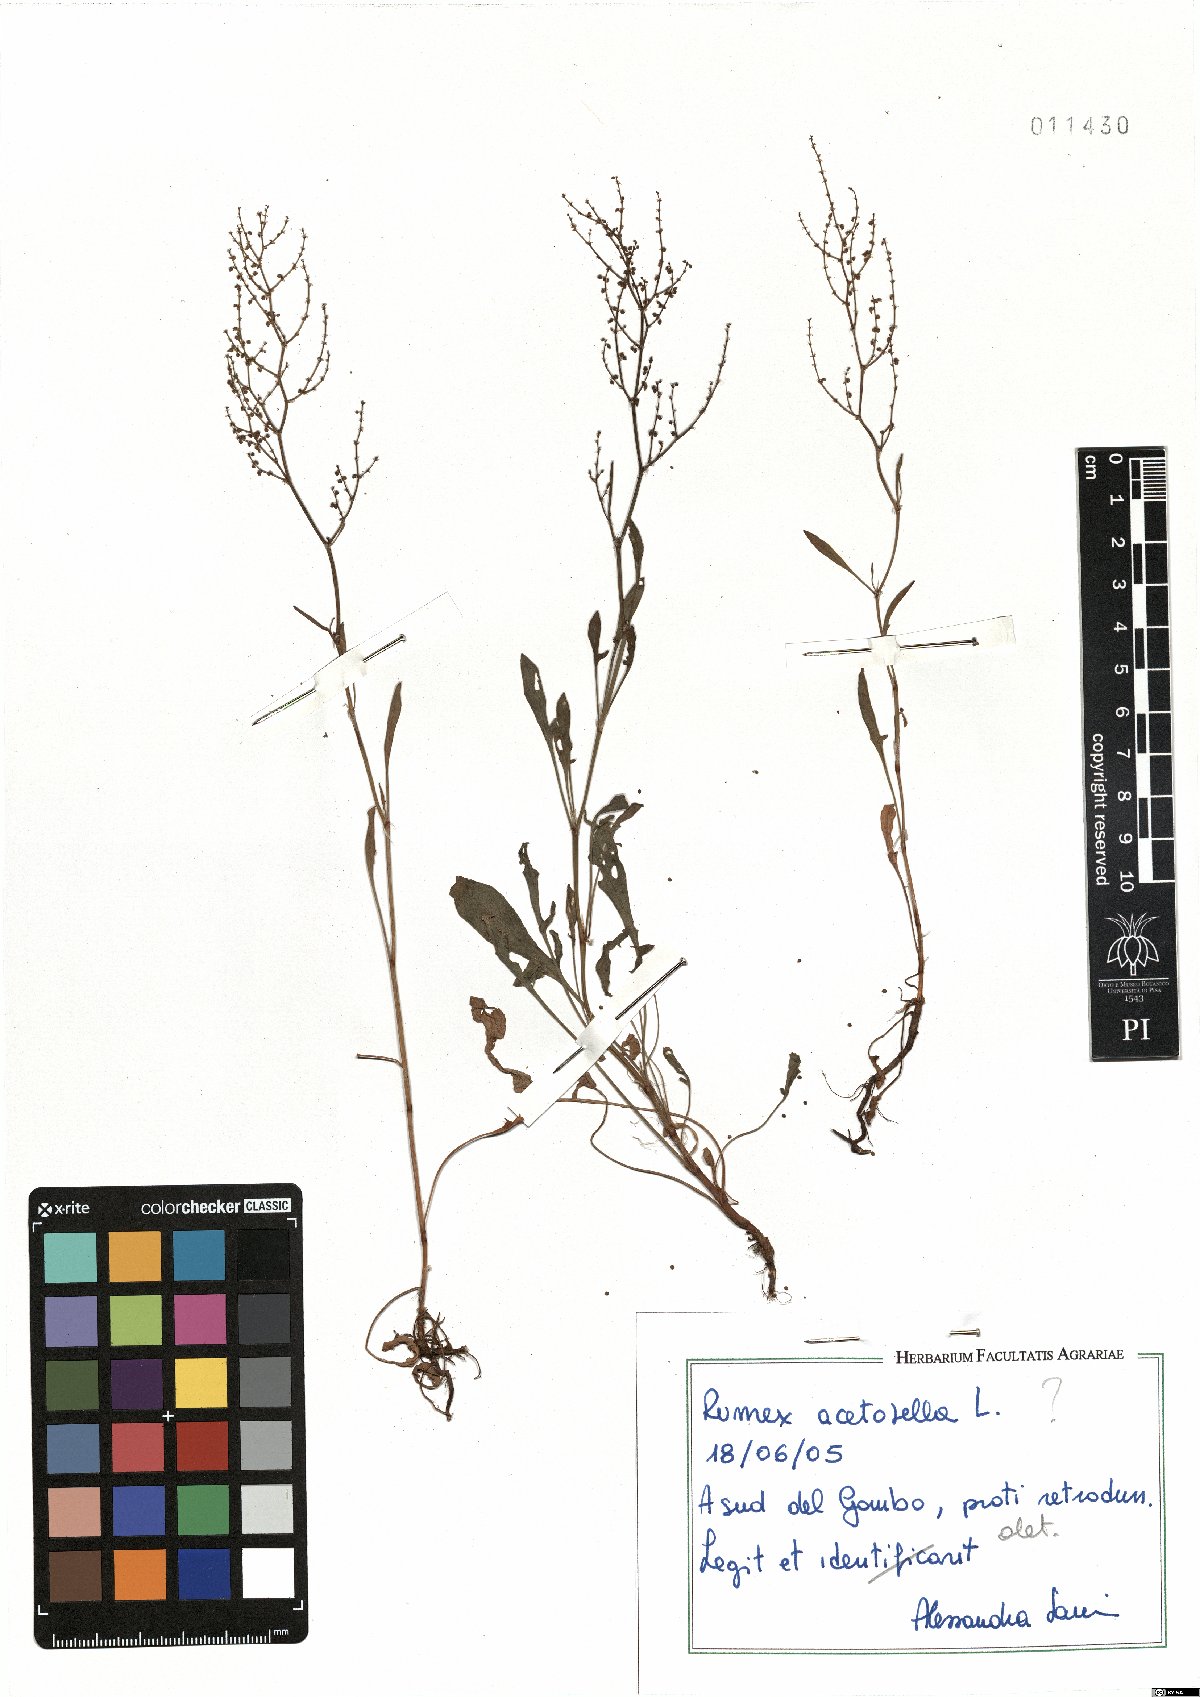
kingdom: Plantae
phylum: Tracheophyta
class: Magnoliopsida
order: Caryophyllales
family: Polygonaceae
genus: Rumex
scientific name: Rumex acetosella
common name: Common sheep sorrel
